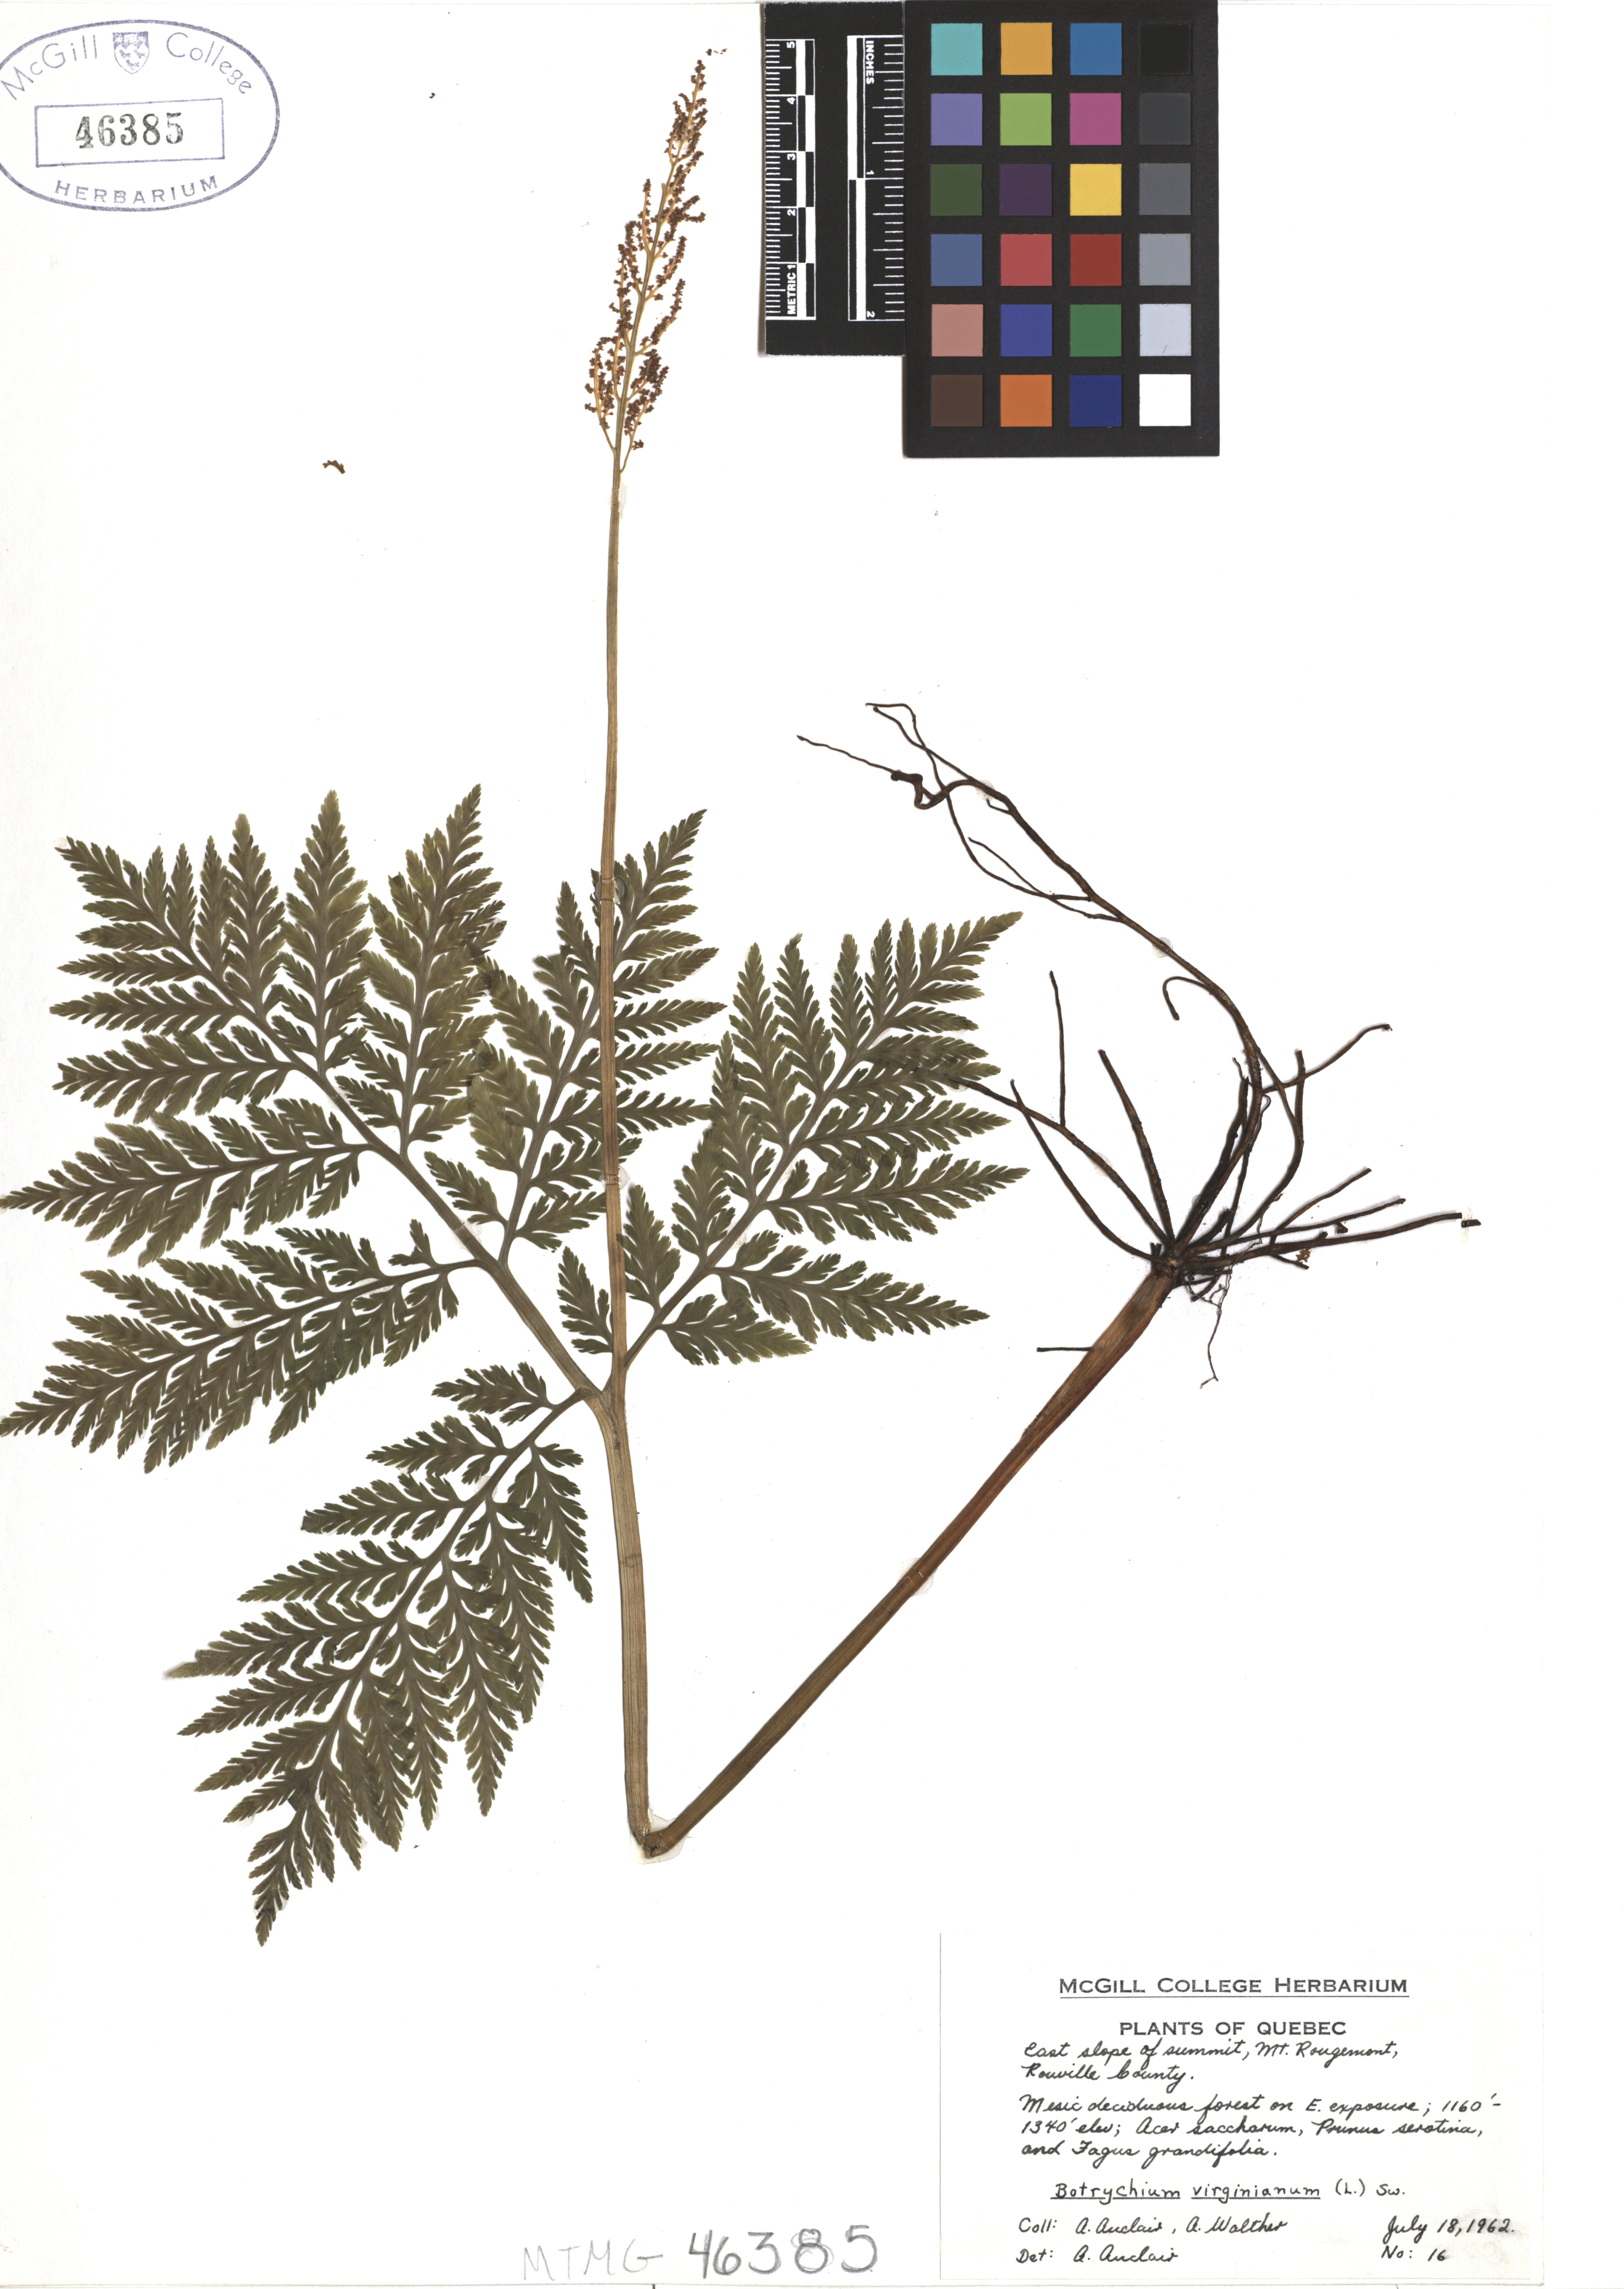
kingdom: Plantae
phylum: Tracheophyta
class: Polypodiopsida
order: Ophioglossales
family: Ophioglossaceae
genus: Botrypus
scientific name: Botrypus virginianus
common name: Common grapefern
